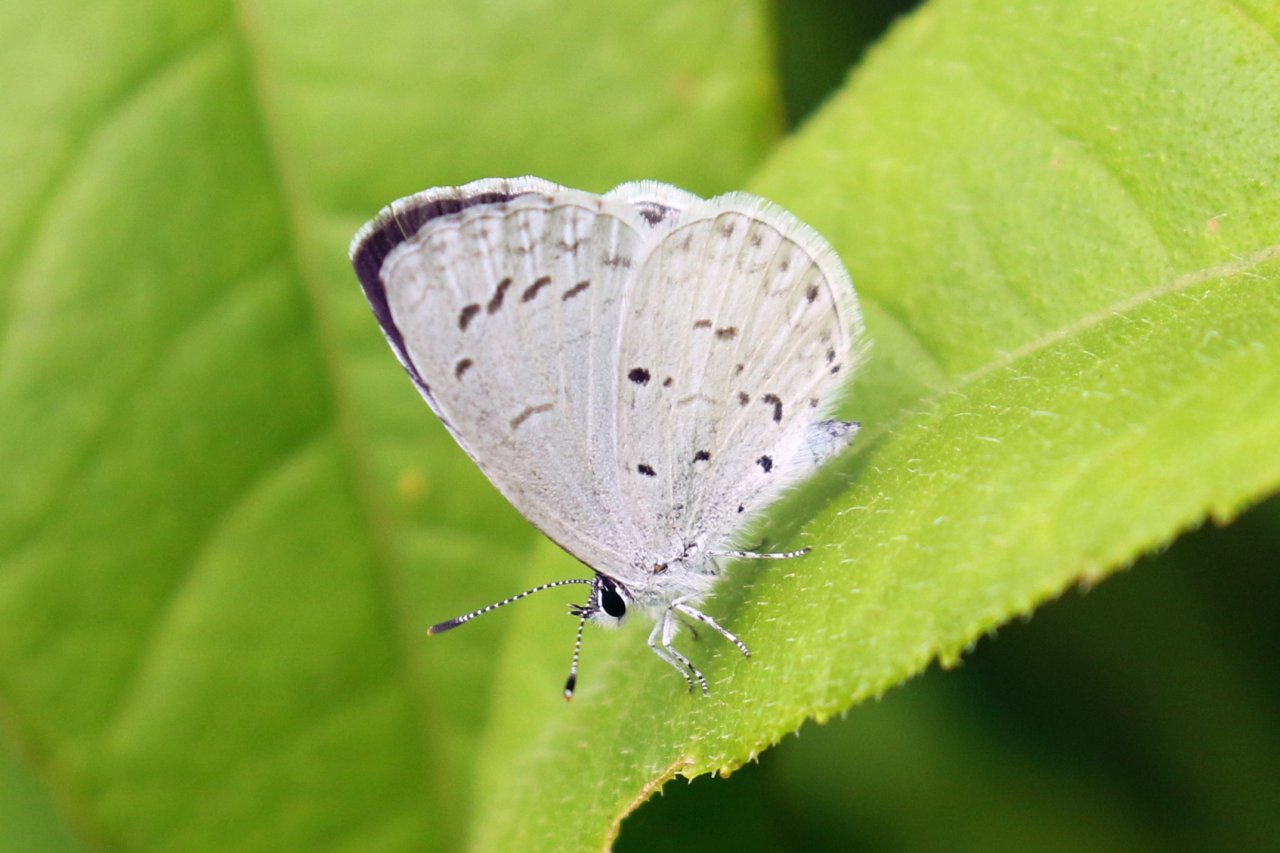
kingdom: Animalia
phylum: Arthropoda
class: Insecta
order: Lepidoptera
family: Lycaenidae
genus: Celastrina
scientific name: Celastrina ladon
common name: Spring Azure
